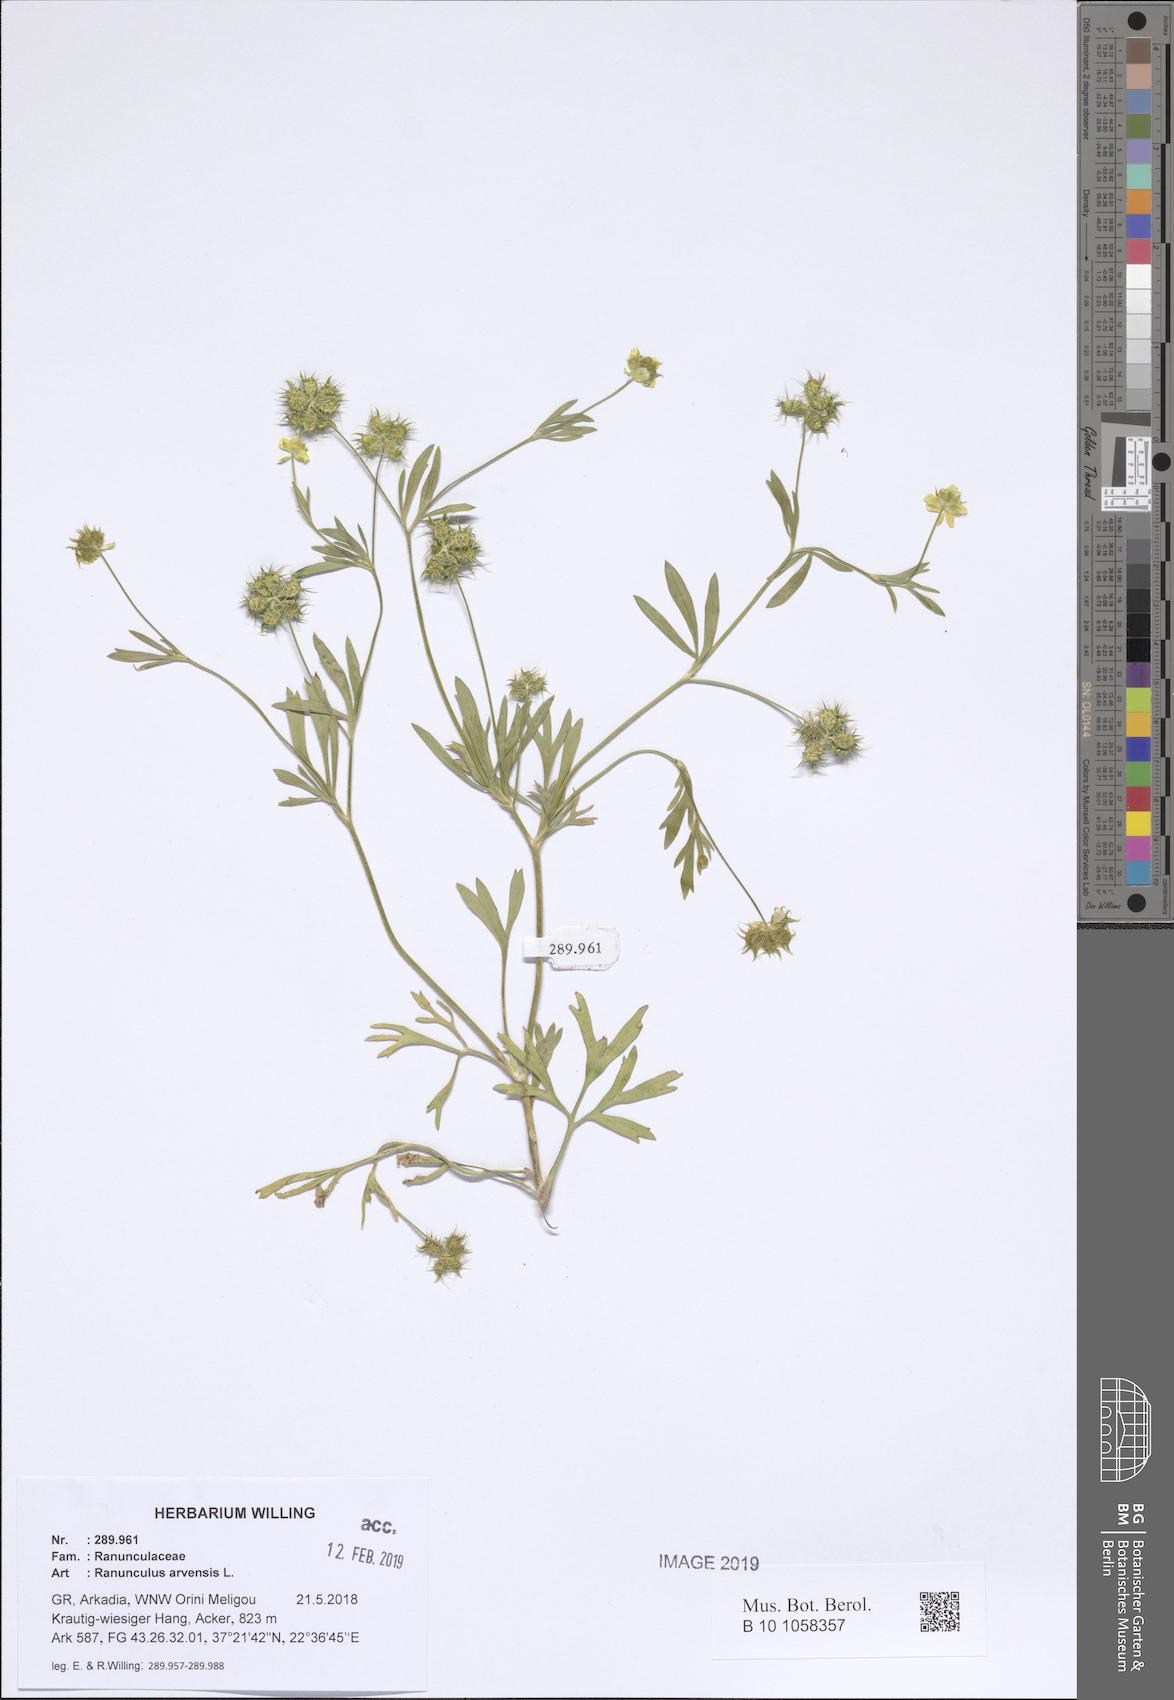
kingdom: Plantae
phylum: Tracheophyta
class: Magnoliopsida
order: Ranunculales
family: Ranunculaceae
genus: Ranunculus
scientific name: Ranunculus arvensis
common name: Corn buttercup
